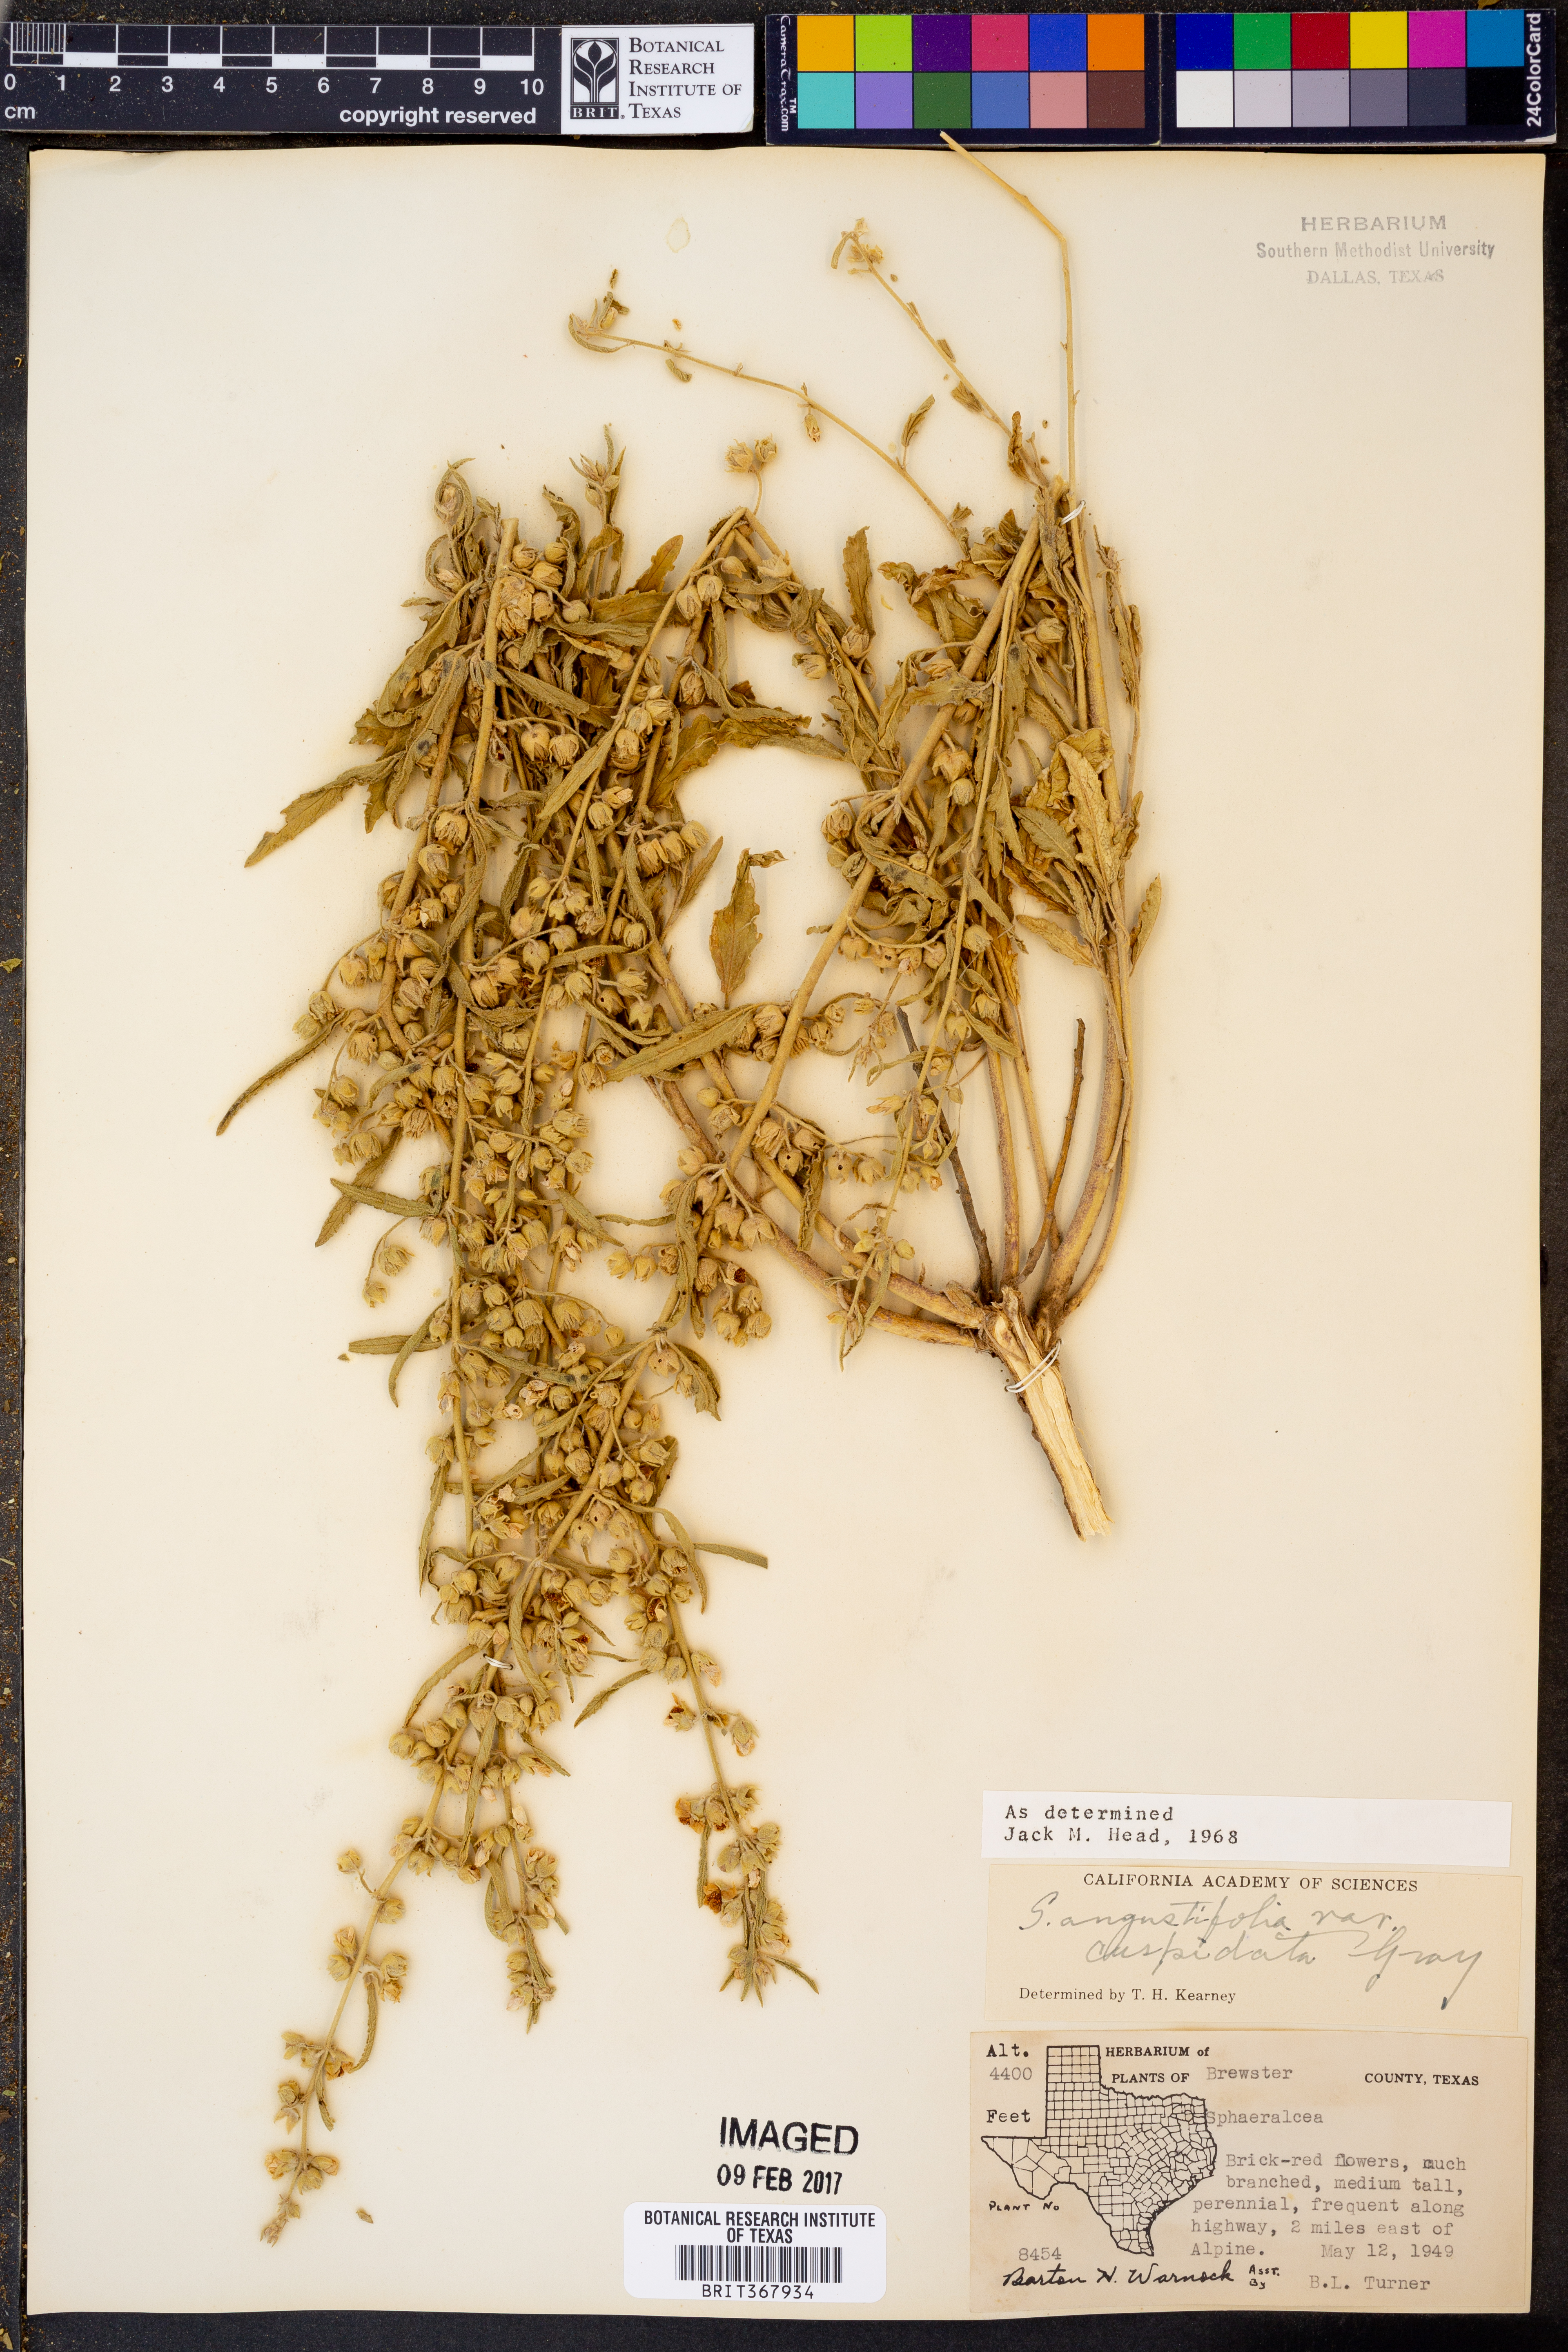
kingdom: Plantae
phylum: Tracheophyta
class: Magnoliopsida
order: Malvales
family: Malvaceae
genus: Sphaeralcea
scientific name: Sphaeralcea angustifolia
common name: Copper globe-mallow
